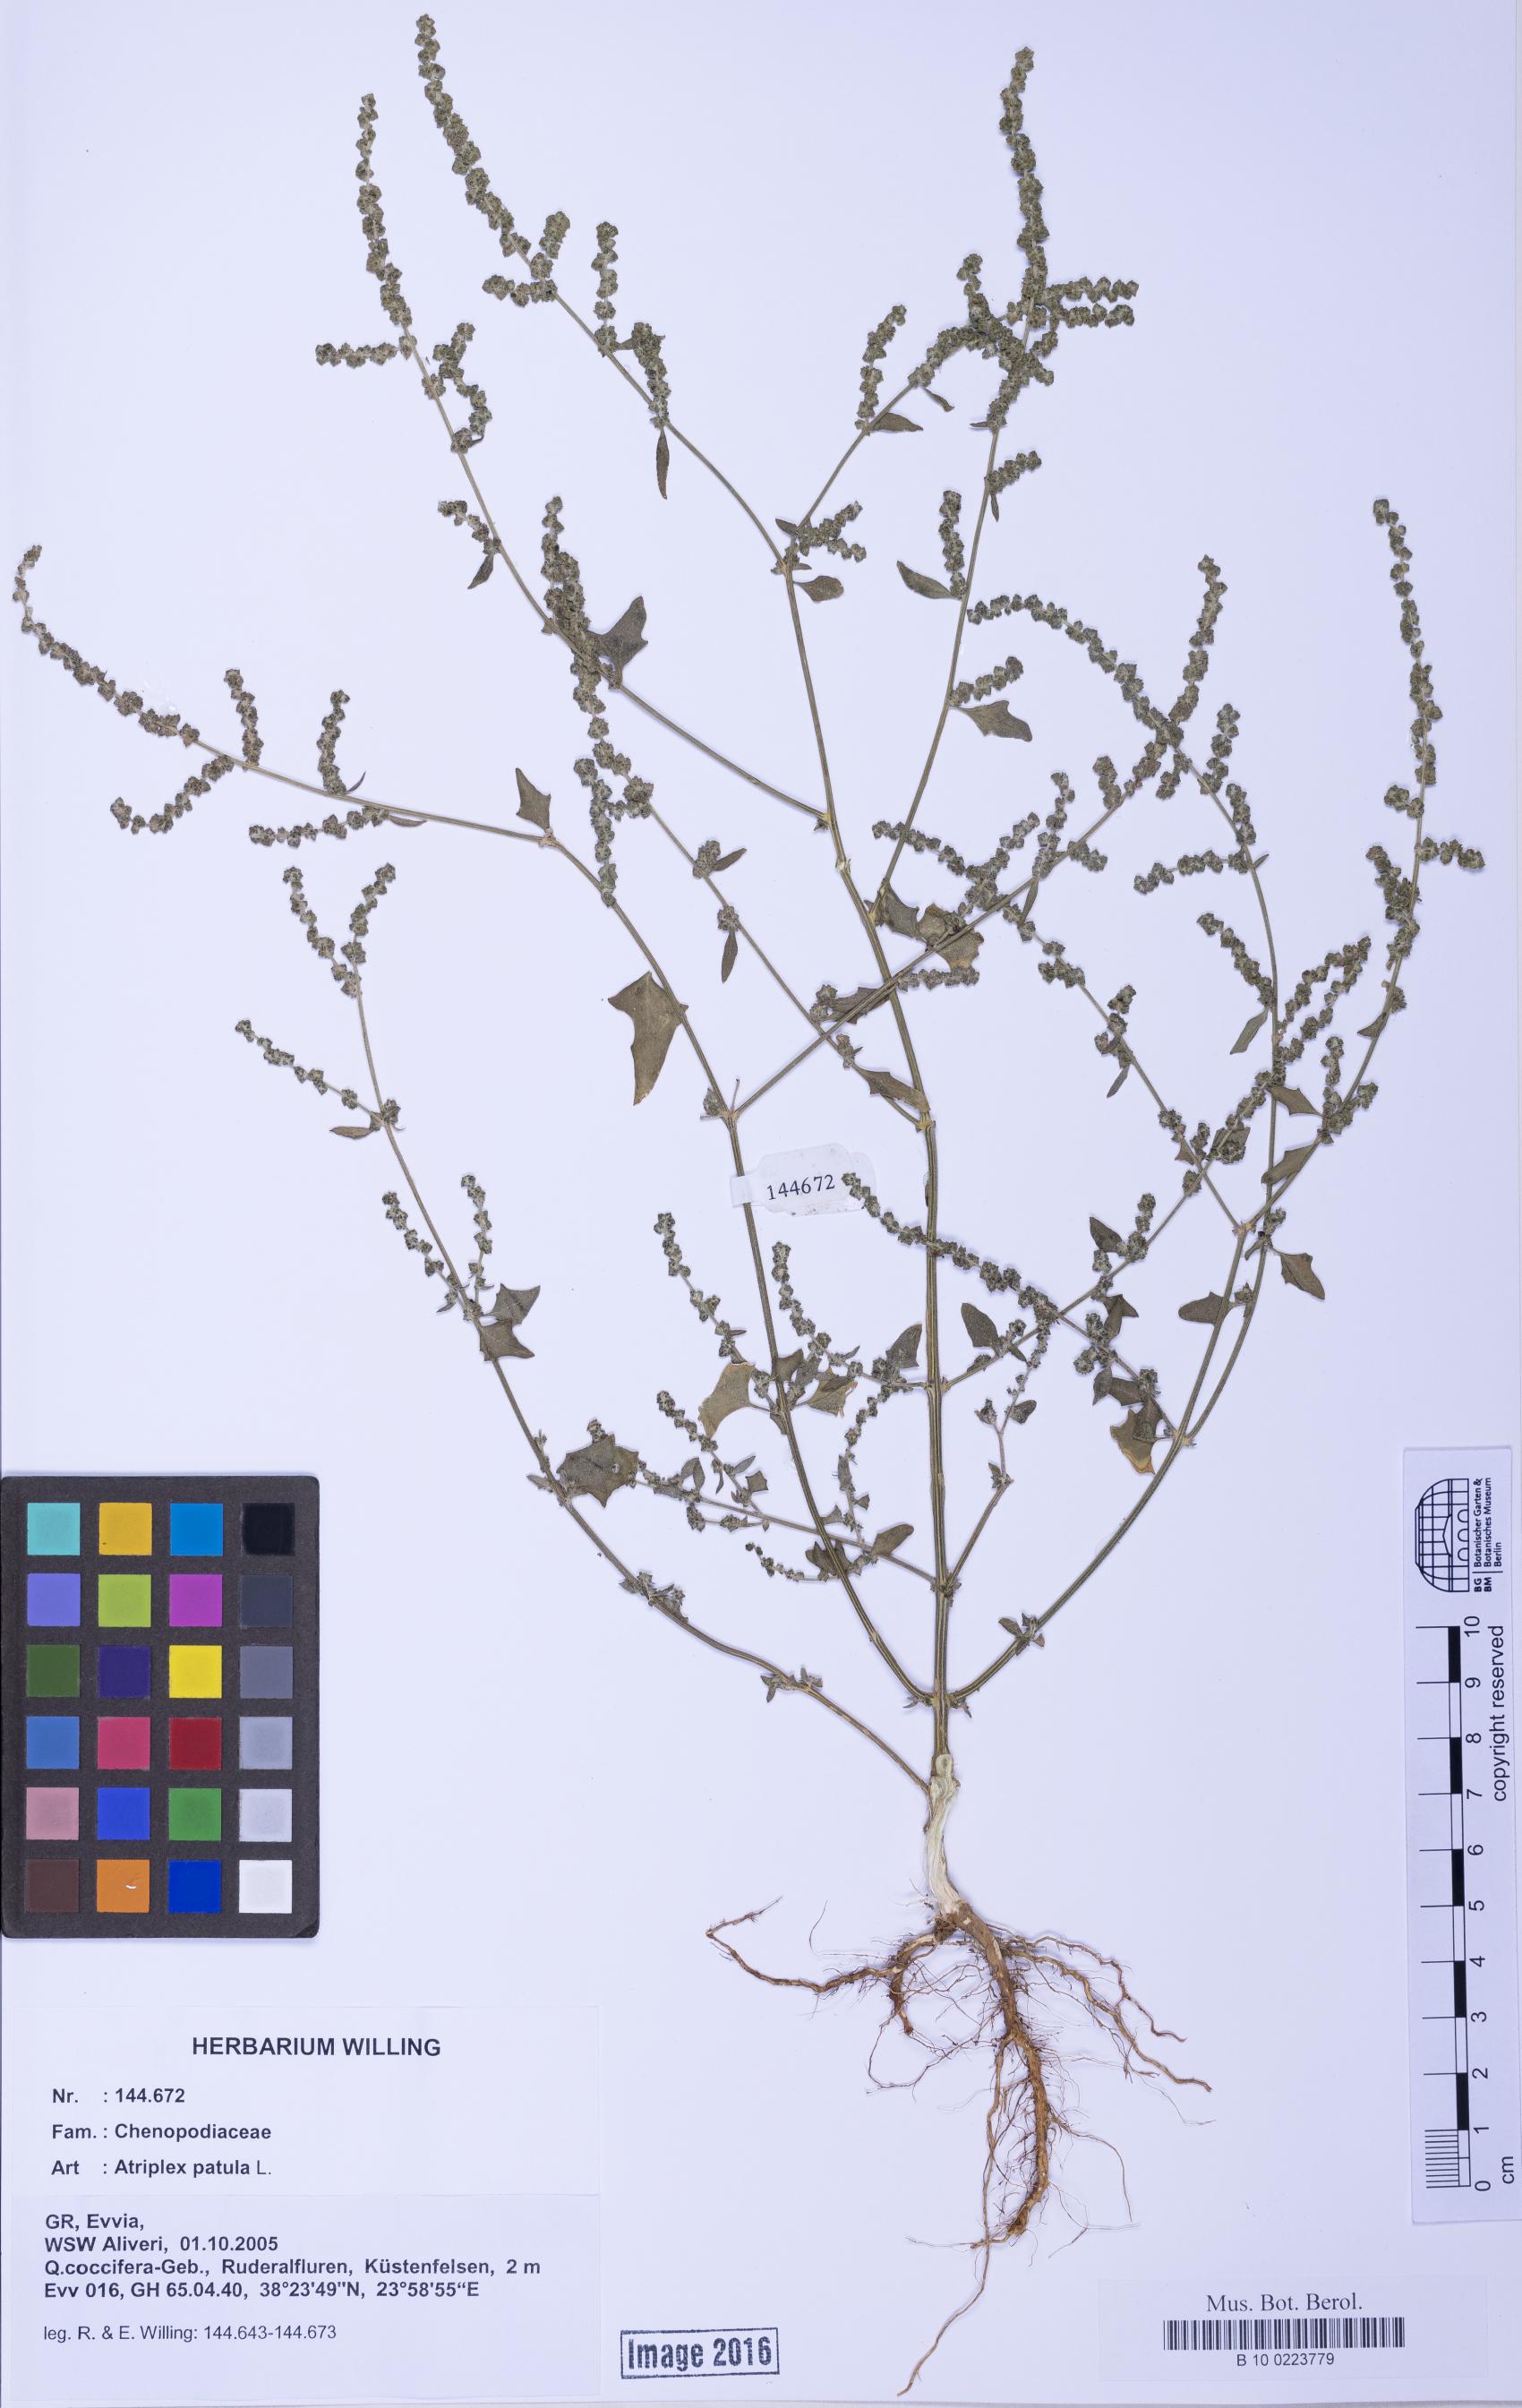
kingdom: Plantae
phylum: Tracheophyta
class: Magnoliopsida
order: Caryophyllales
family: Amaranthaceae
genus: Atriplex
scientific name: Atriplex prostrata
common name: Spear-leaved orache
